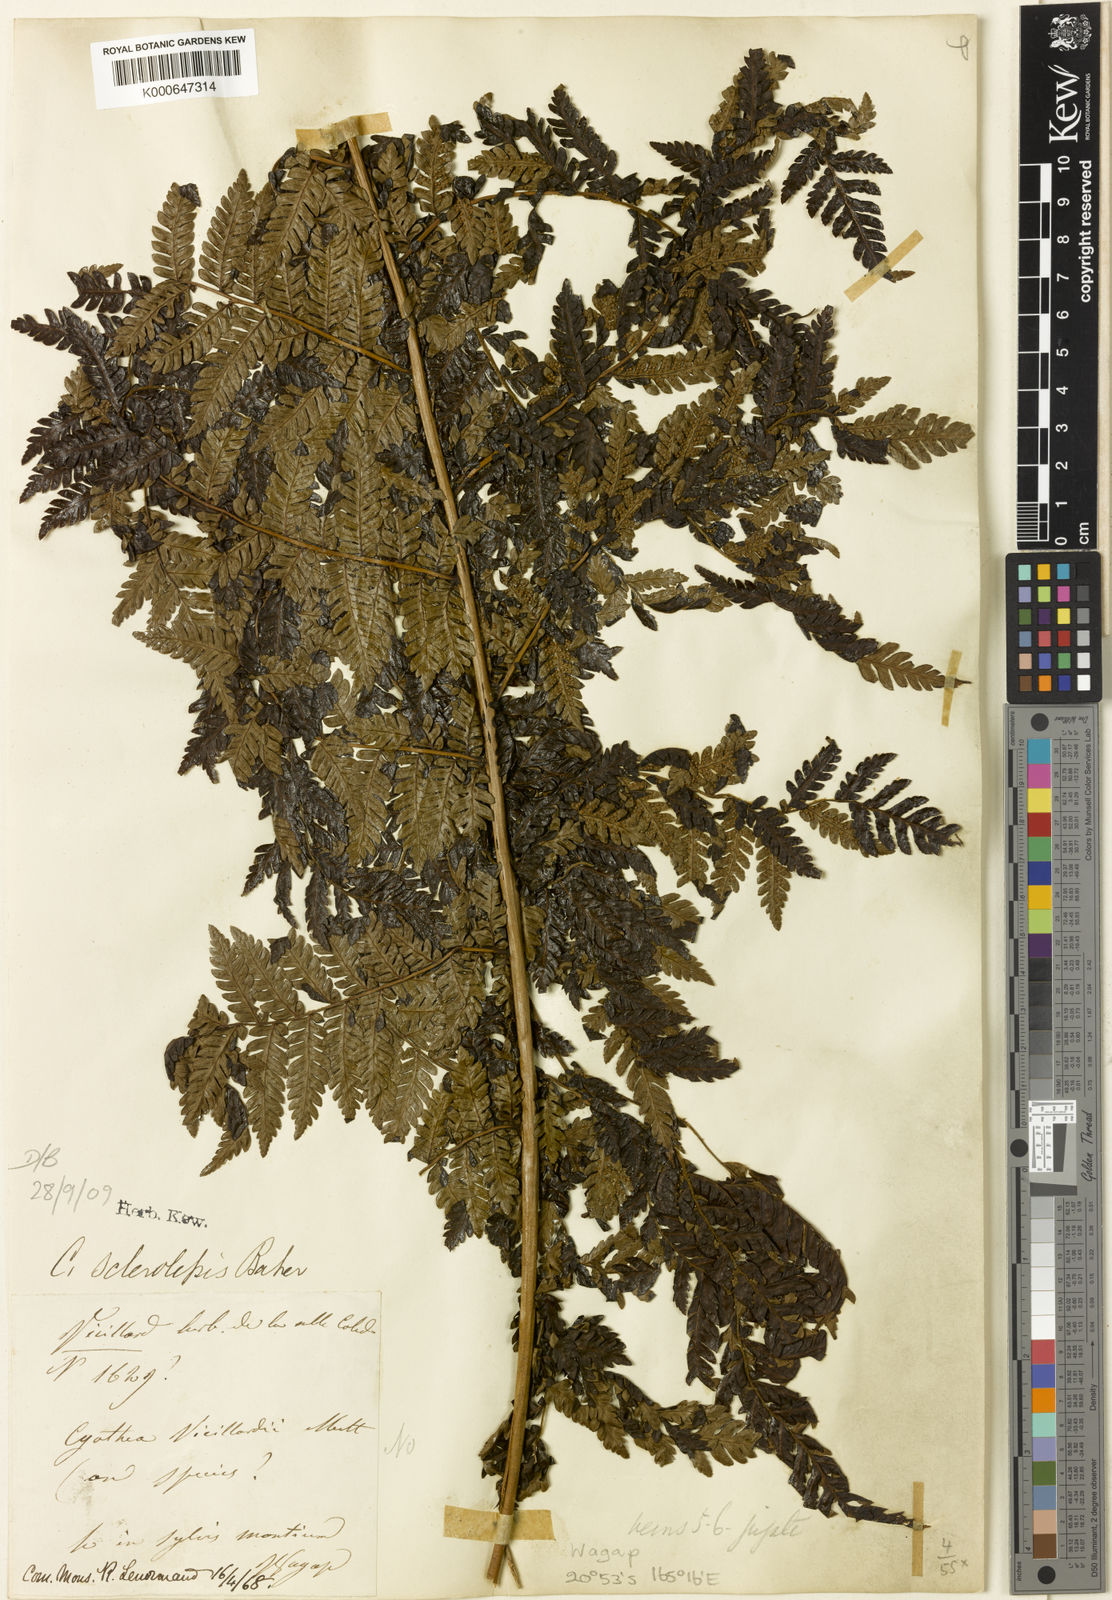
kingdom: Plantae
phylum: Tracheophyta
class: Polypodiopsida
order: Cyatheales
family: Cyatheaceae
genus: Alsophila
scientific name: Alsophila vieillardii
